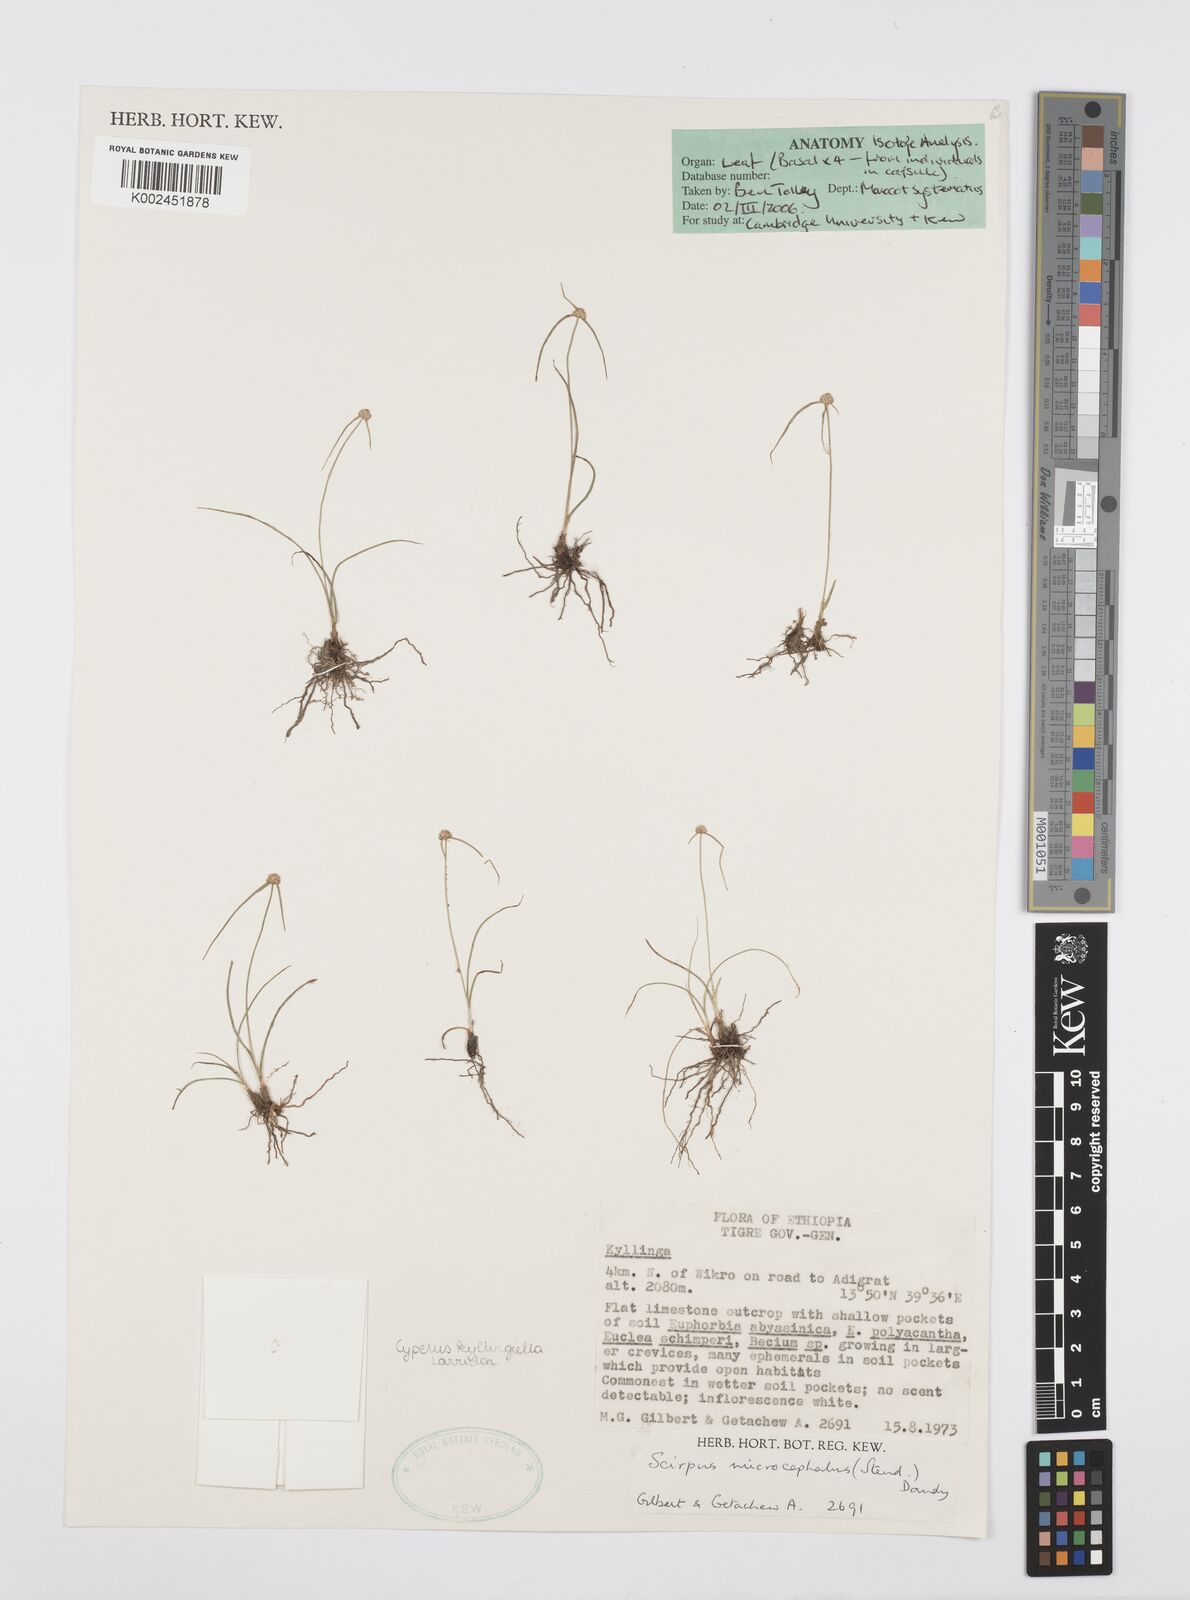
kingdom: Plantae
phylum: Tracheophyta
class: Liliopsida
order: Poales
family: Cyperaceae
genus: Cyperus
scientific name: Cyperus microcephalus
